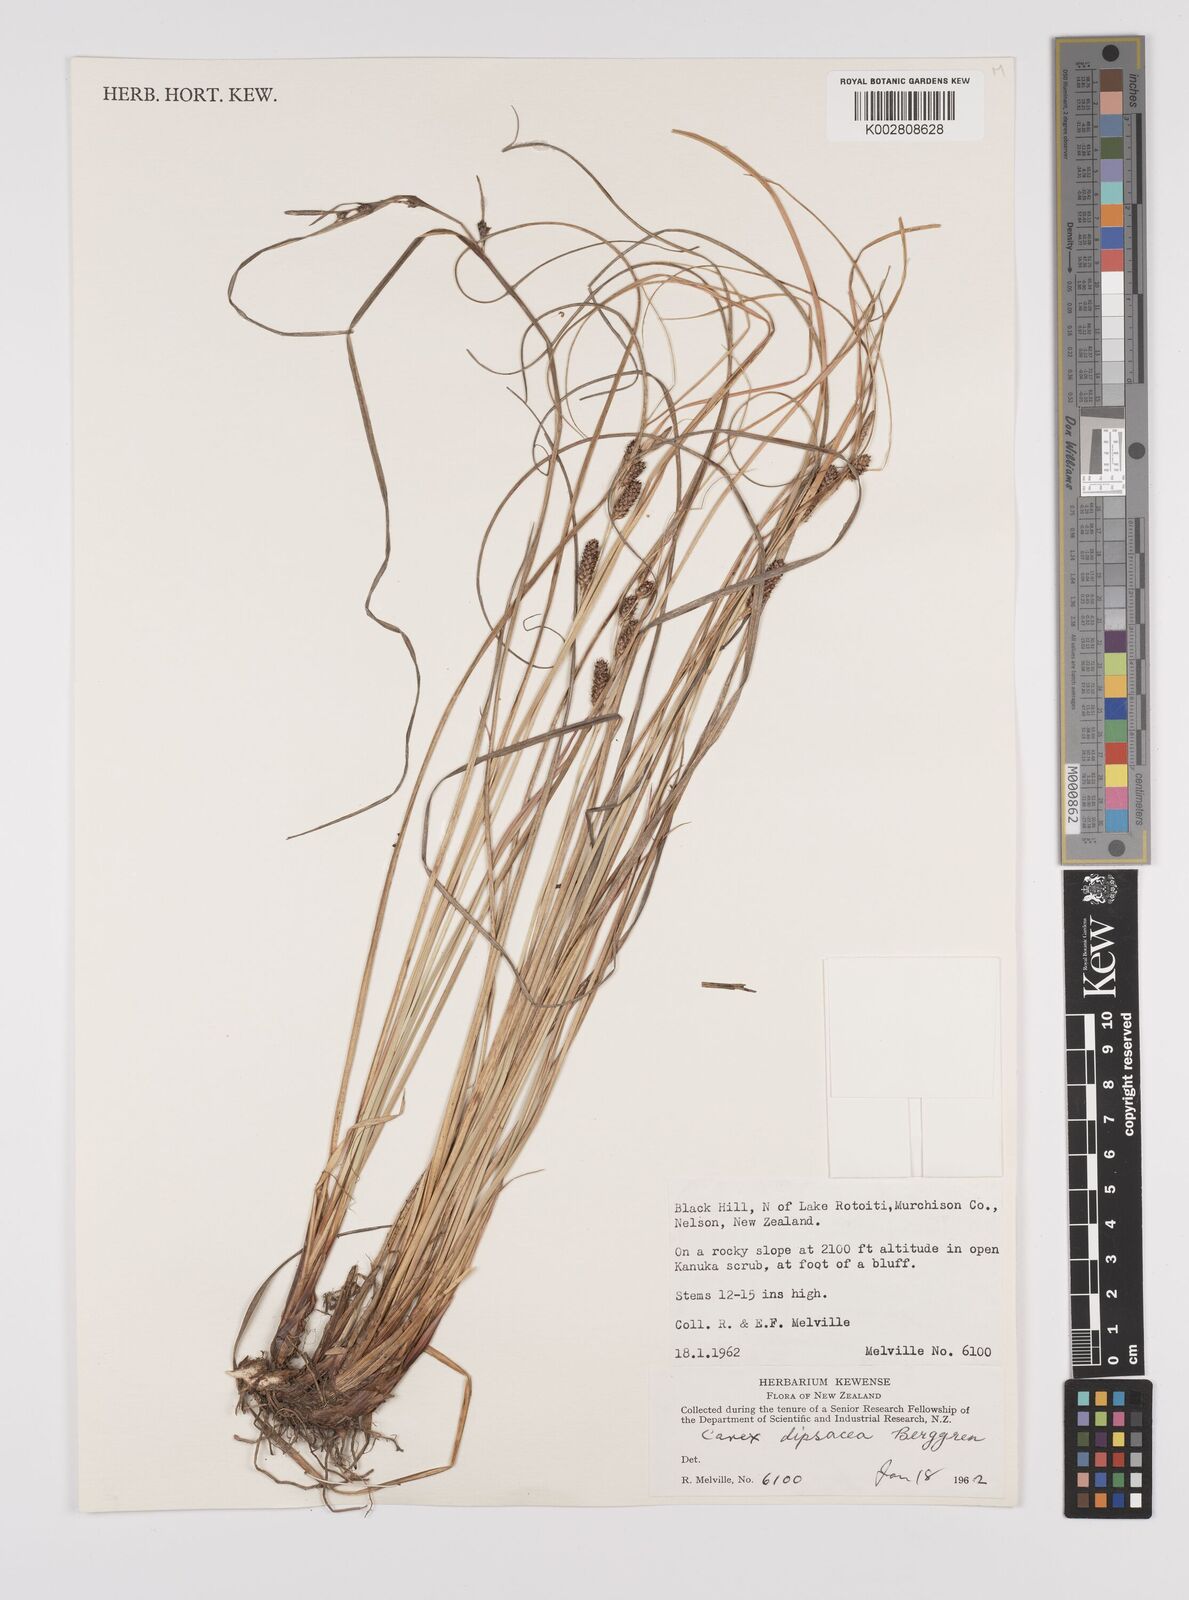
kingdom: Plantae
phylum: Tracheophyta
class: Liliopsida
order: Poales
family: Cyperaceae
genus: Carex
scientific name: Carex dipsacea
